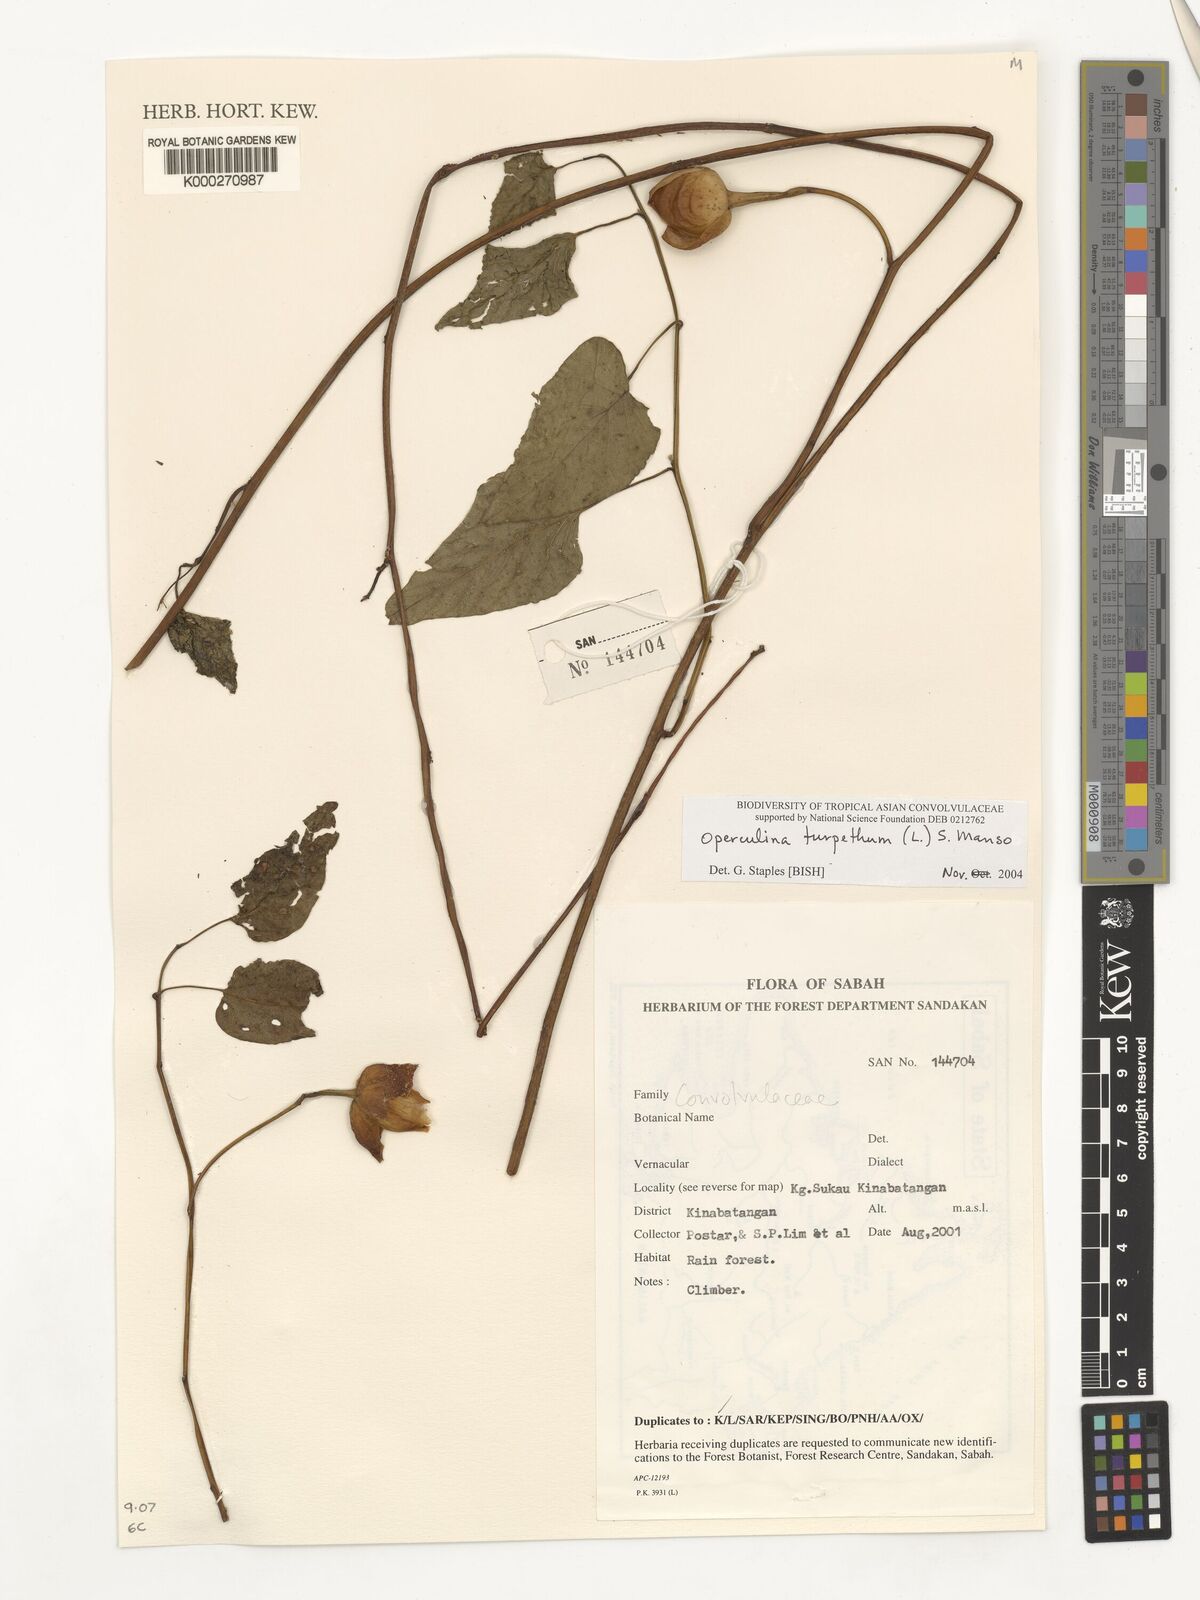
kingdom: Plantae
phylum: Tracheophyta
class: Magnoliopsida
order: Solanales
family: Convolvulaceae
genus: Operculina
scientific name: Operculina turpethum
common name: Transparent wood-rose
